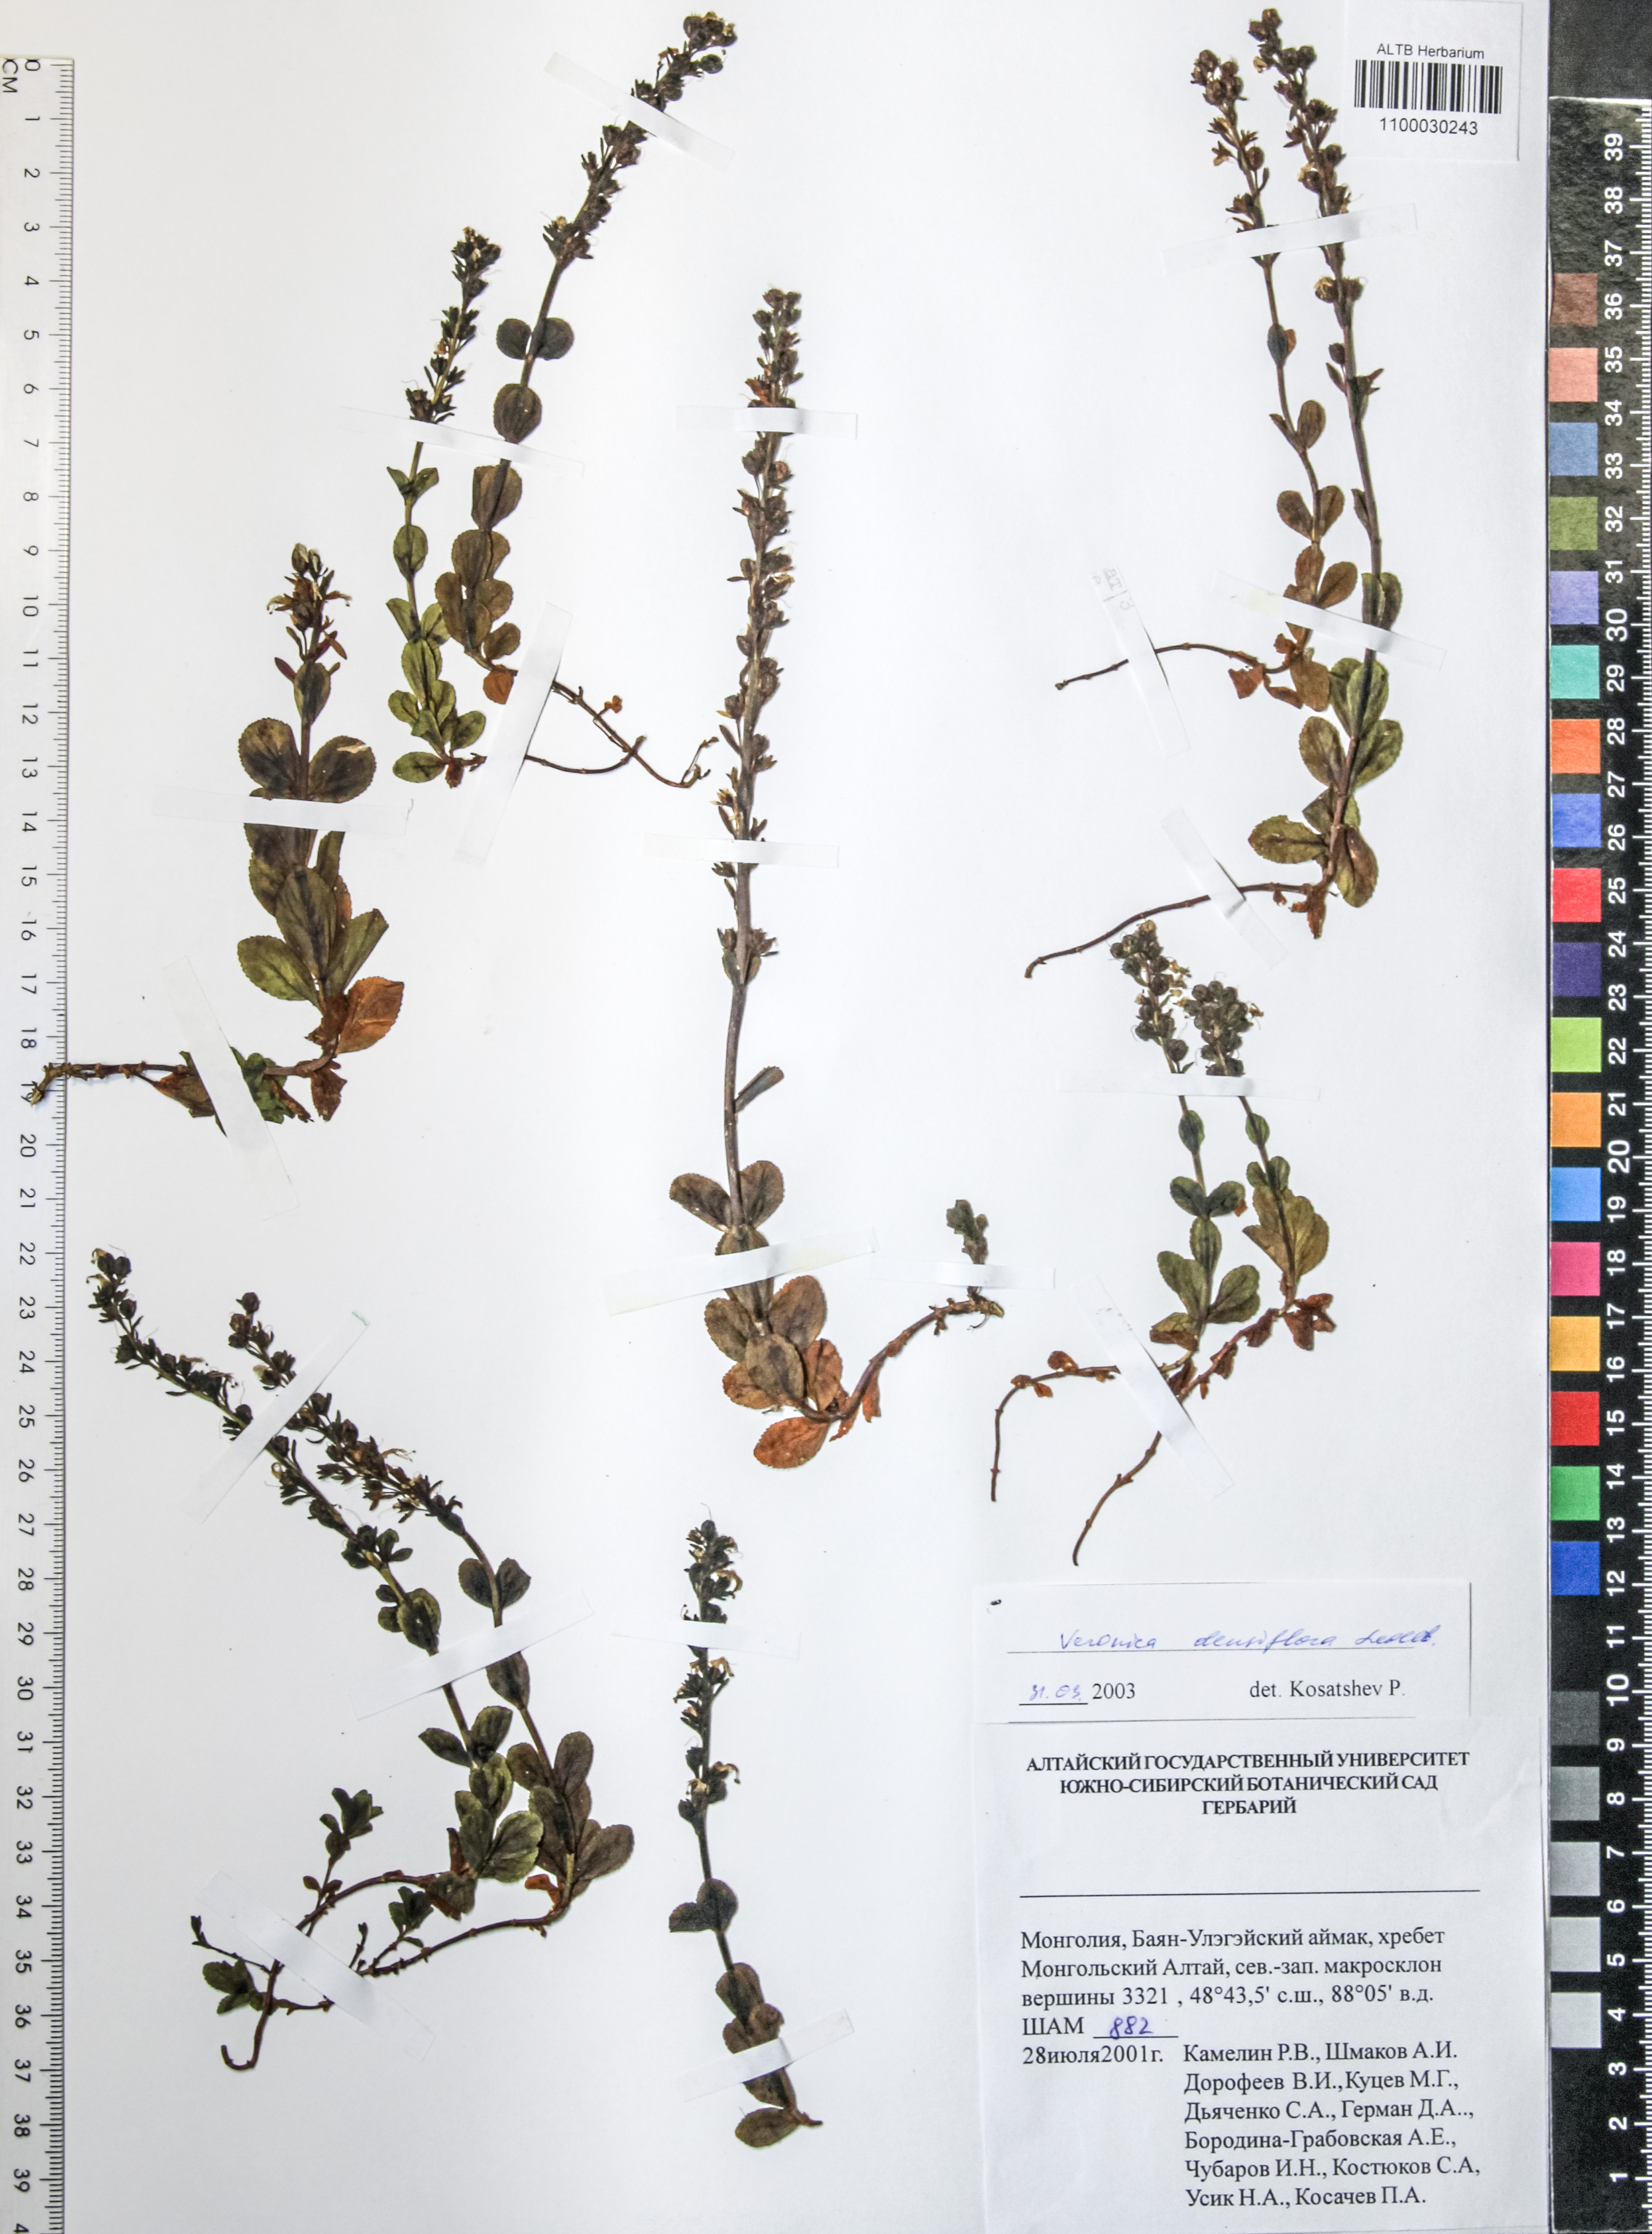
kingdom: Plantae
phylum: Tracheophyta
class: Magnoliopsida
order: Lamiales
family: Plantaginaceae
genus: Veronica
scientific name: Veronica densiflora
